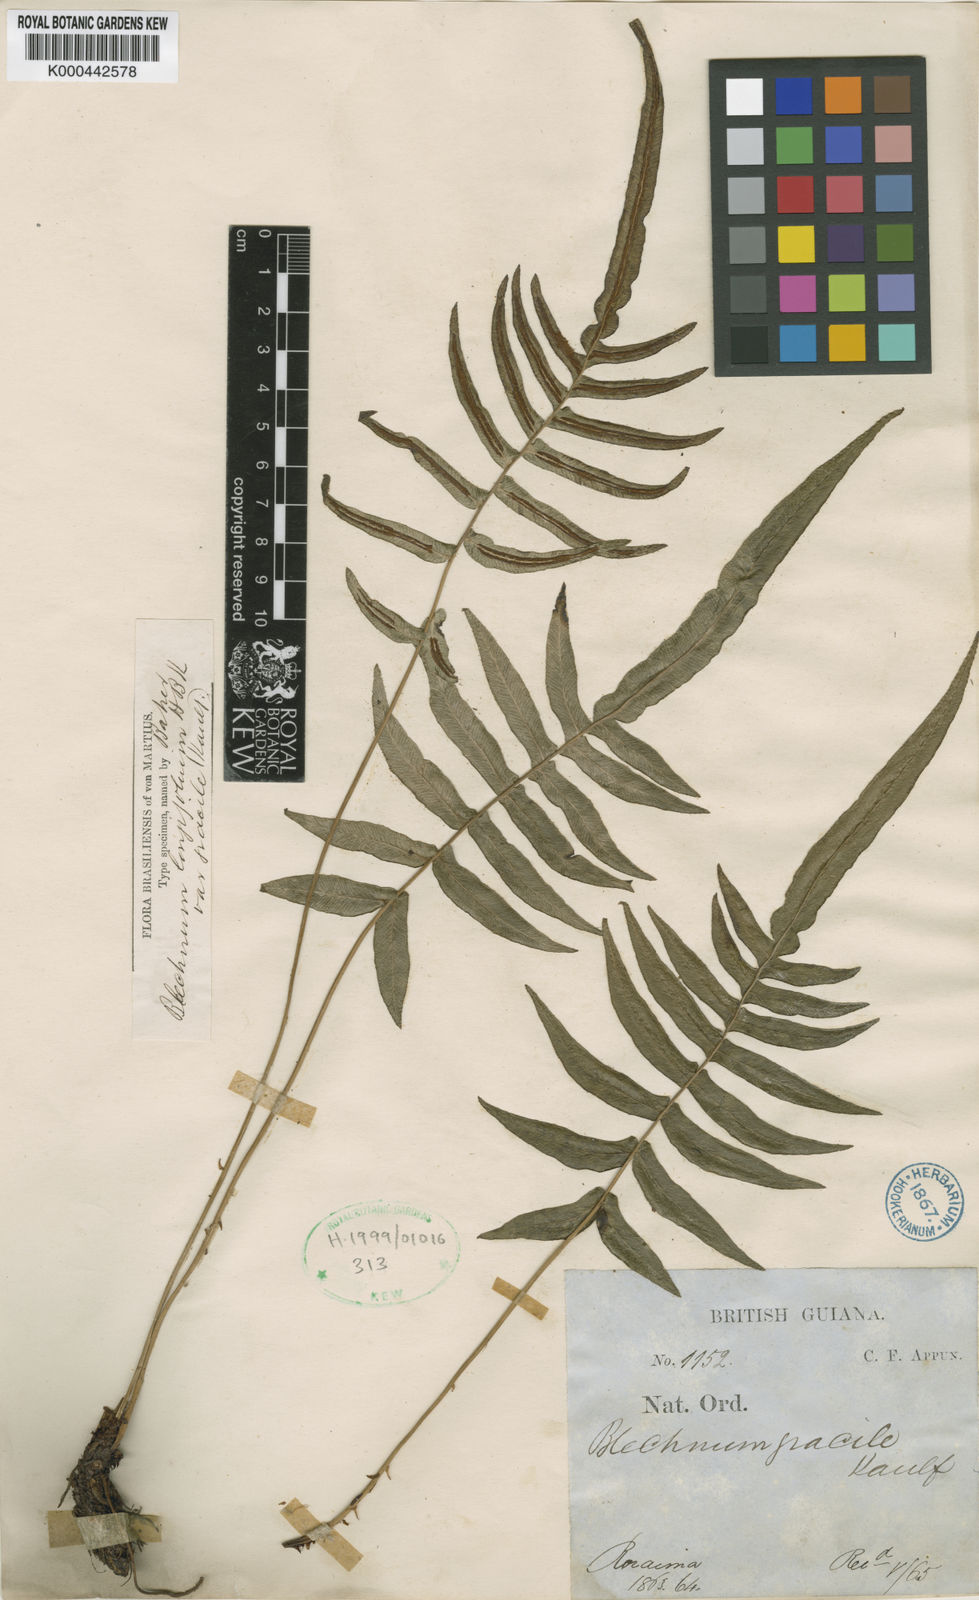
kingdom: Plantae
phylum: Tracheophyta
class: Polypodiopsida
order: Polypodiales
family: Blechnaceae
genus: Blechnum
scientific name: Blechnum gracile
